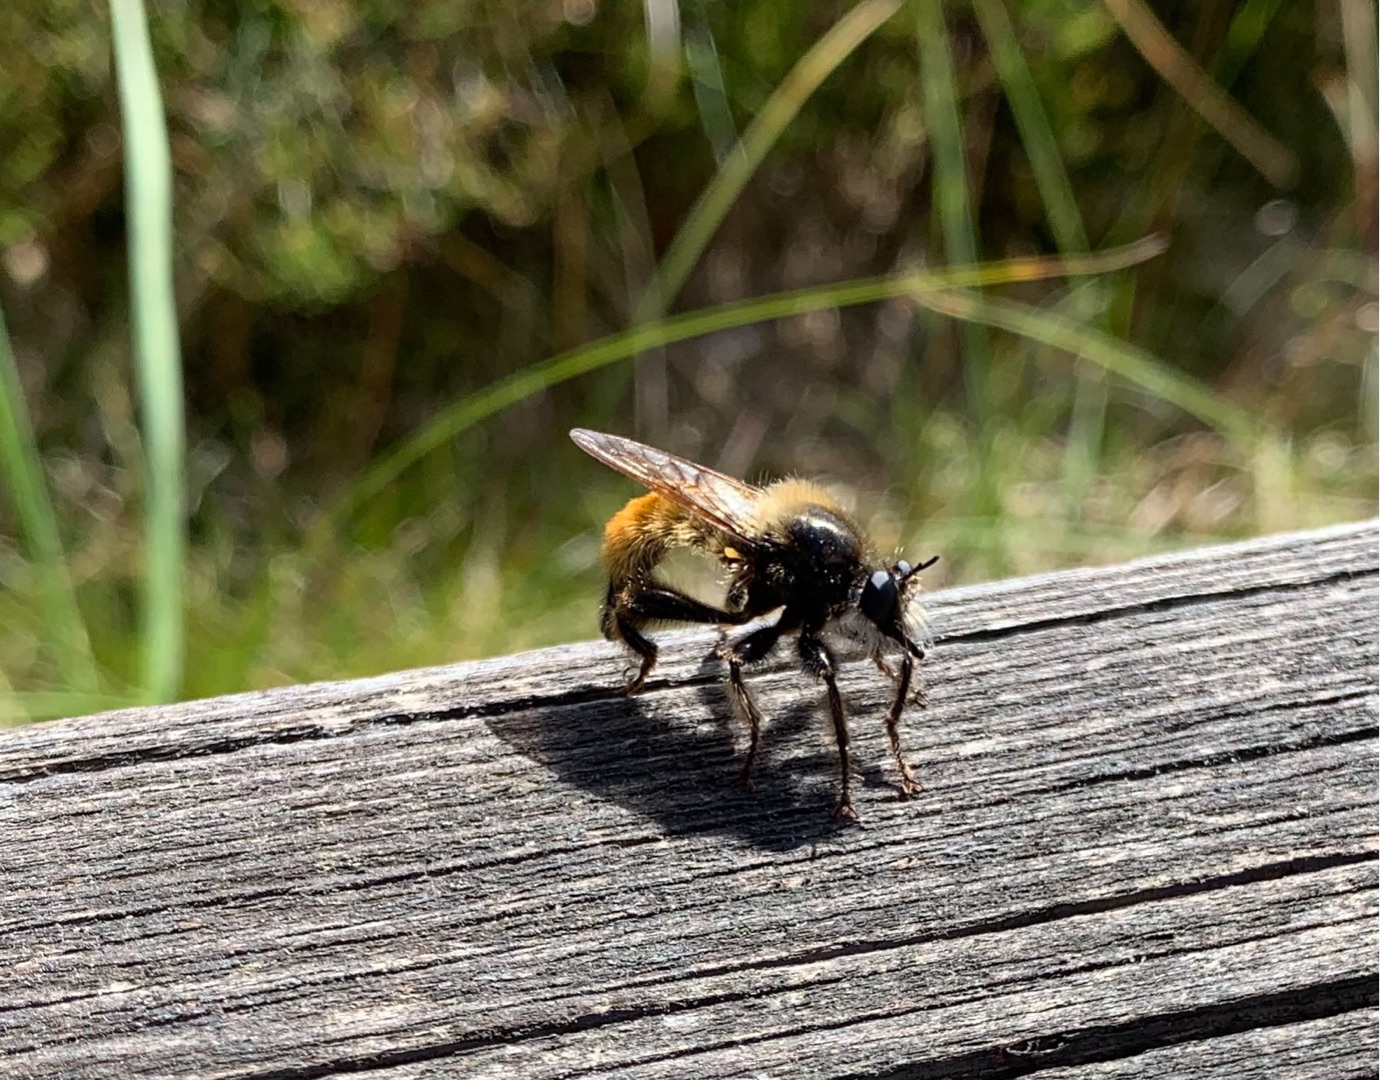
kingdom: Animalia
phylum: Arthropoda
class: Insecta
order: Diptera
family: Asilidae
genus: Laphria
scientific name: Laphria flava
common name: Gul vedrovflue
